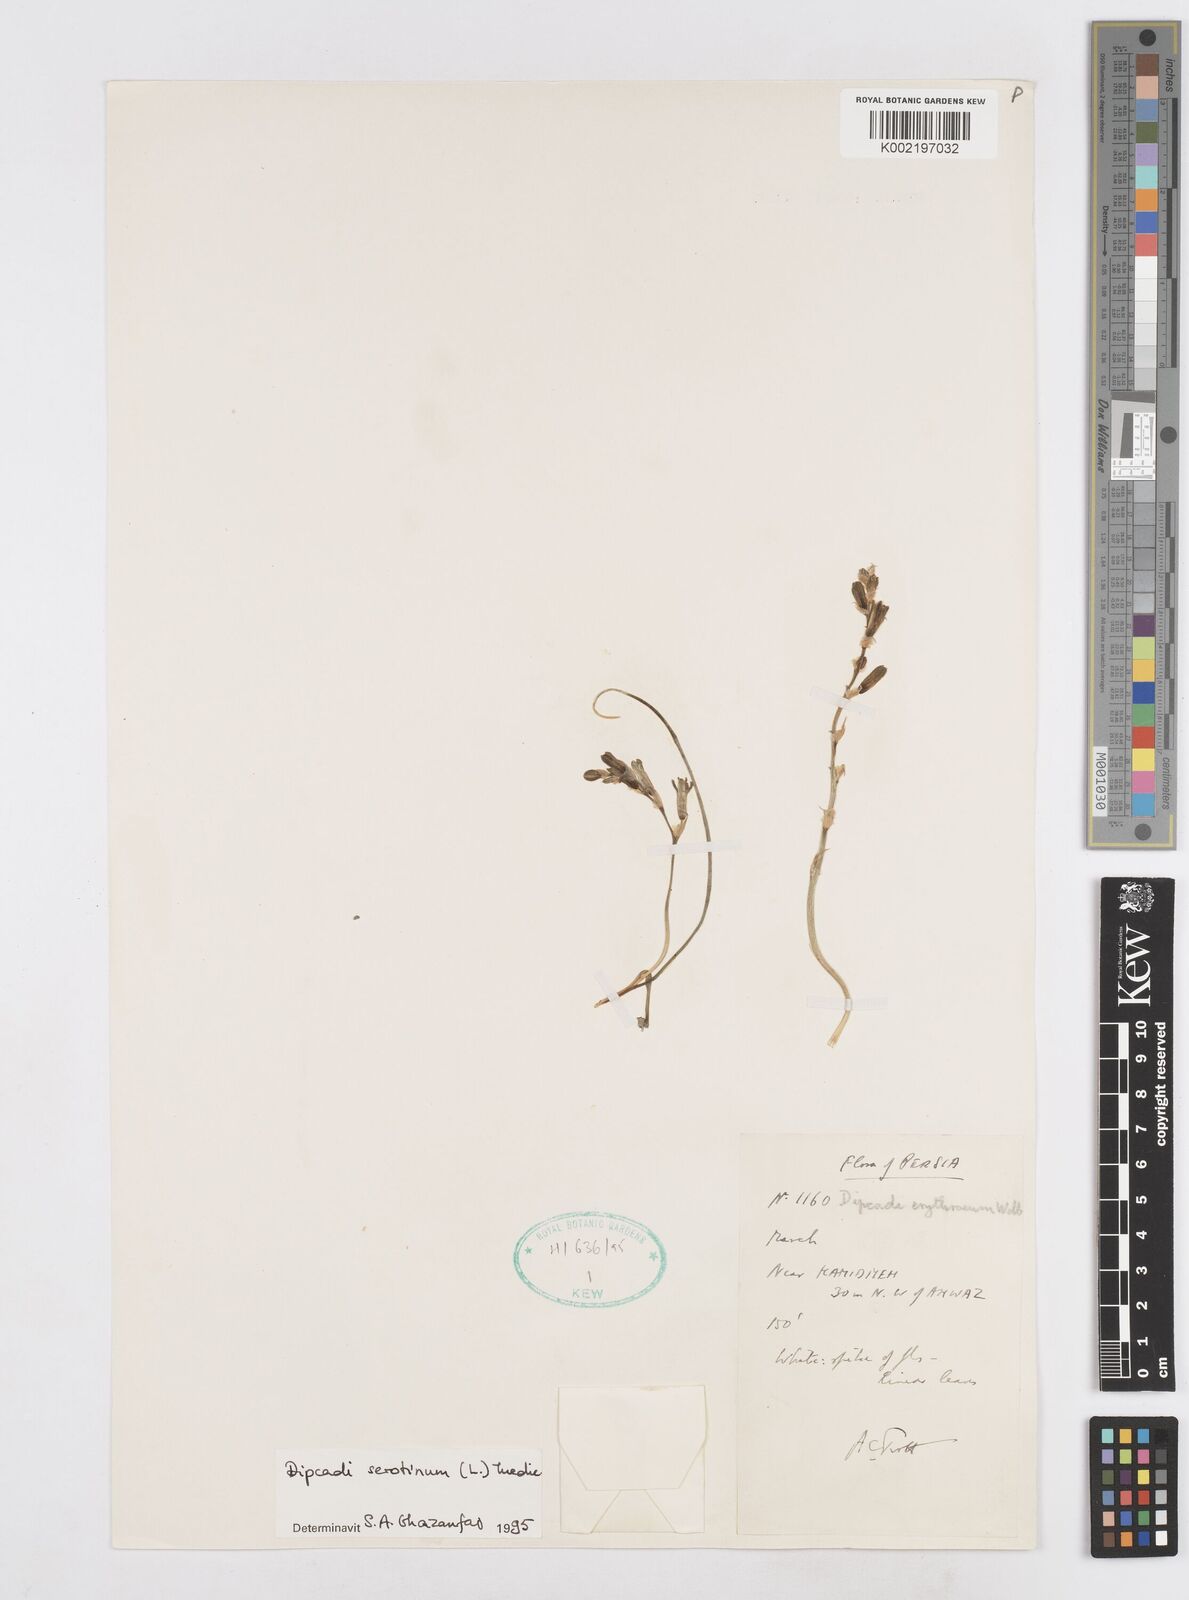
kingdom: Plantae
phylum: Tracheophyta
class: Liliopsida
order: Asparagales
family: Asparagaceae
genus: Dipcadi
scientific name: Dipcadi serotinum
